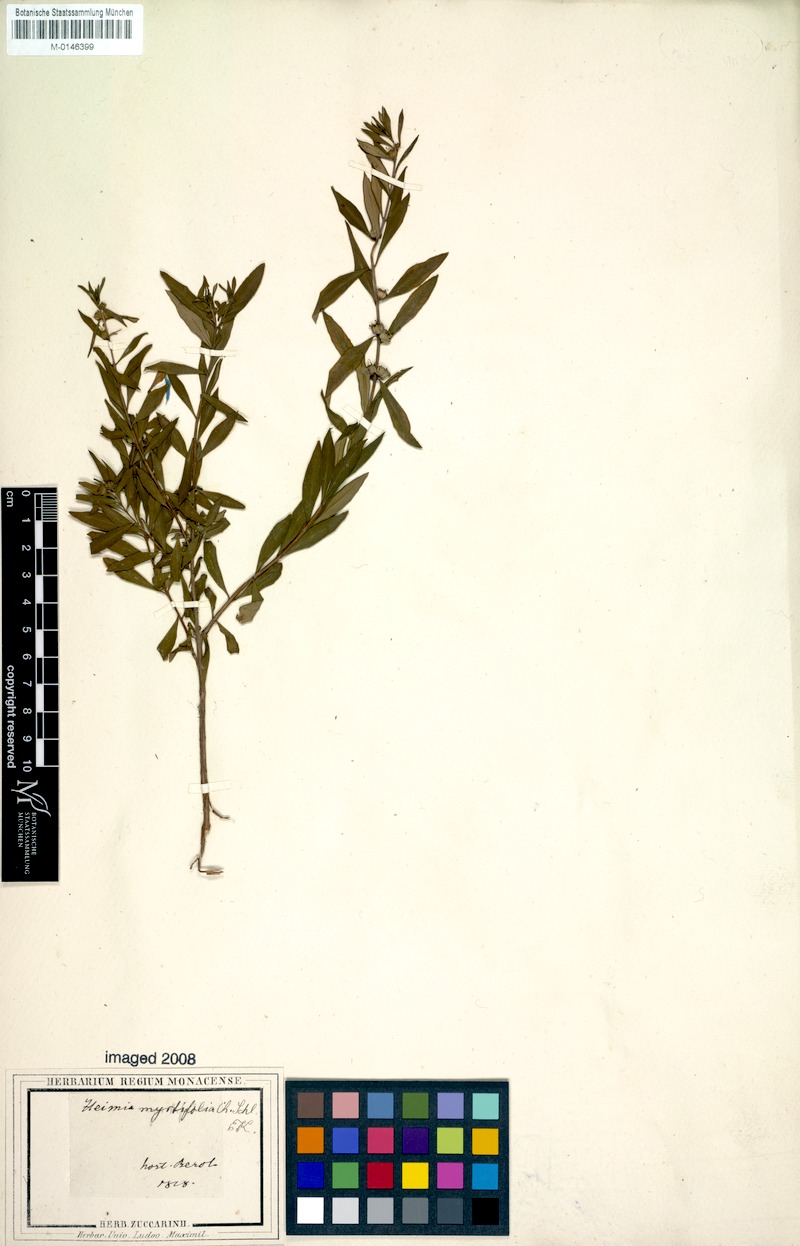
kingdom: Plantae
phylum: Tracheophyta
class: Magnoliopsida
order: Myrtales
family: Lythraceae
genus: Heimia
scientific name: Heimia apetala
